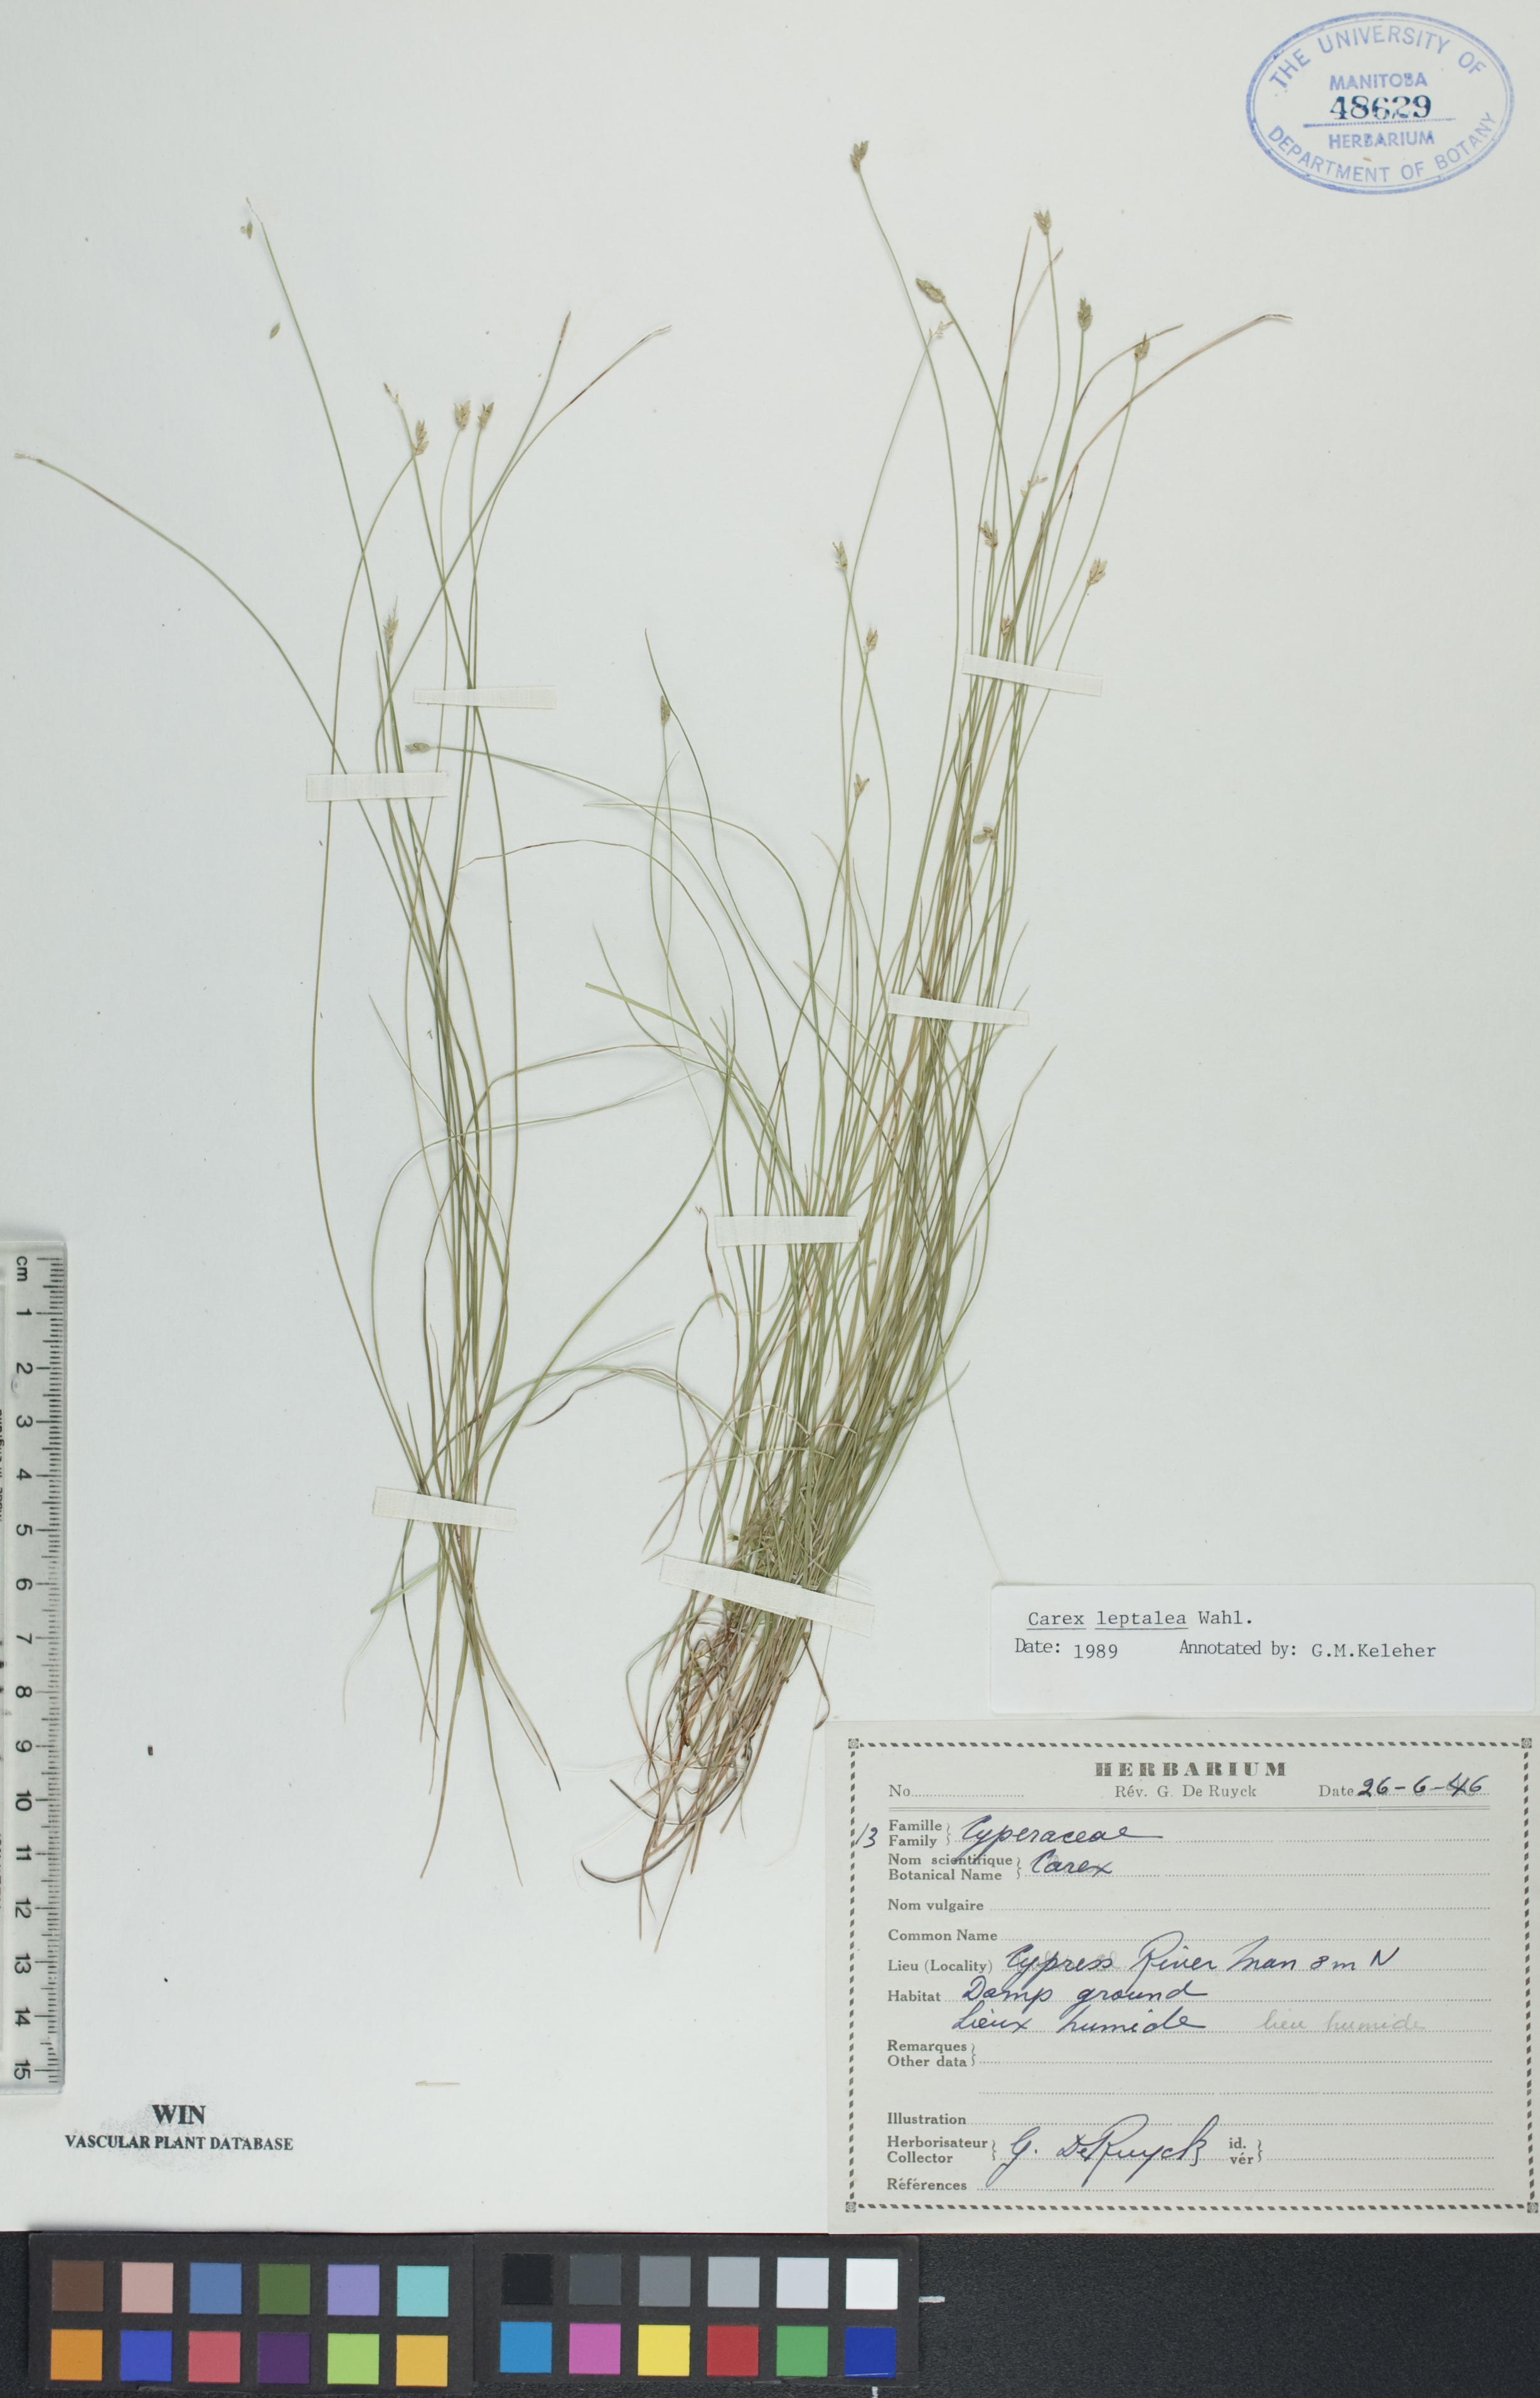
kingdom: Plantae
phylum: Tracheophyta
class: Liliopsida
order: Poales
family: Cyperaceae
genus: Carex
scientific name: Carex leptalea
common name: Bristly-stalked sedge
